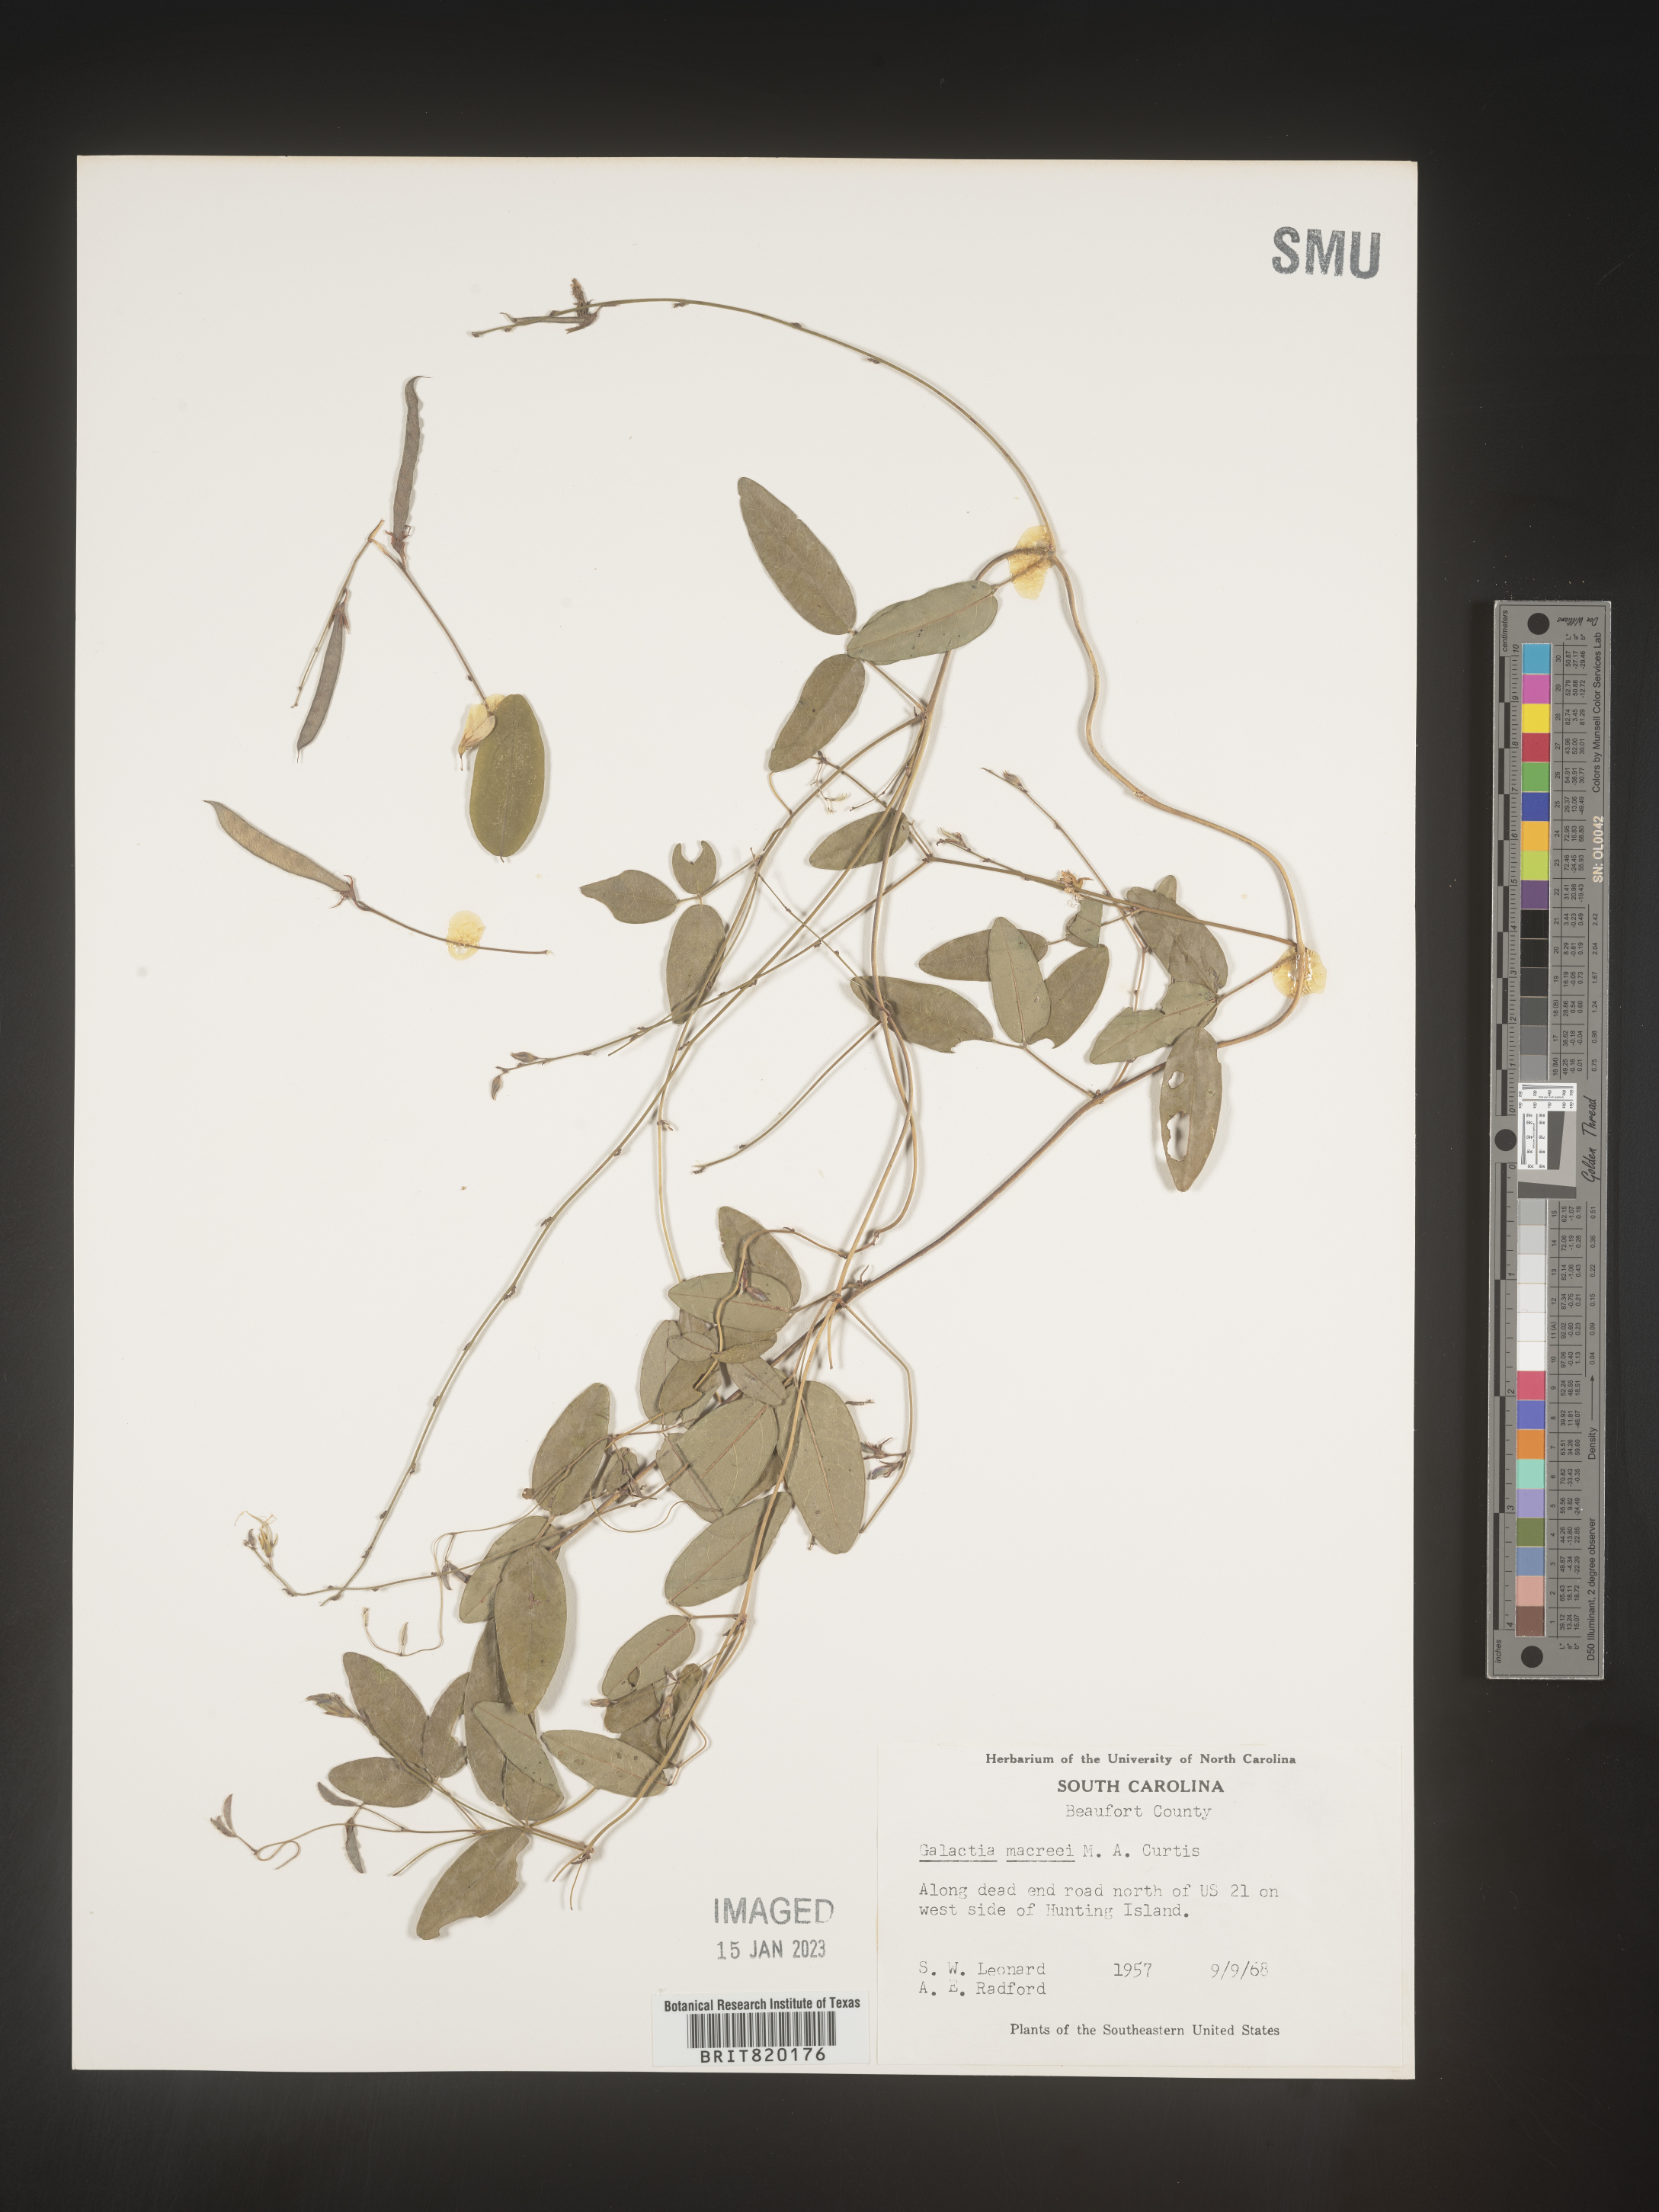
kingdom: Plantae
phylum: Tracheophyta
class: Magnoliopsida
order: Fabales
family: Fabaceae
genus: Galactia
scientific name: Galactia volubilis
